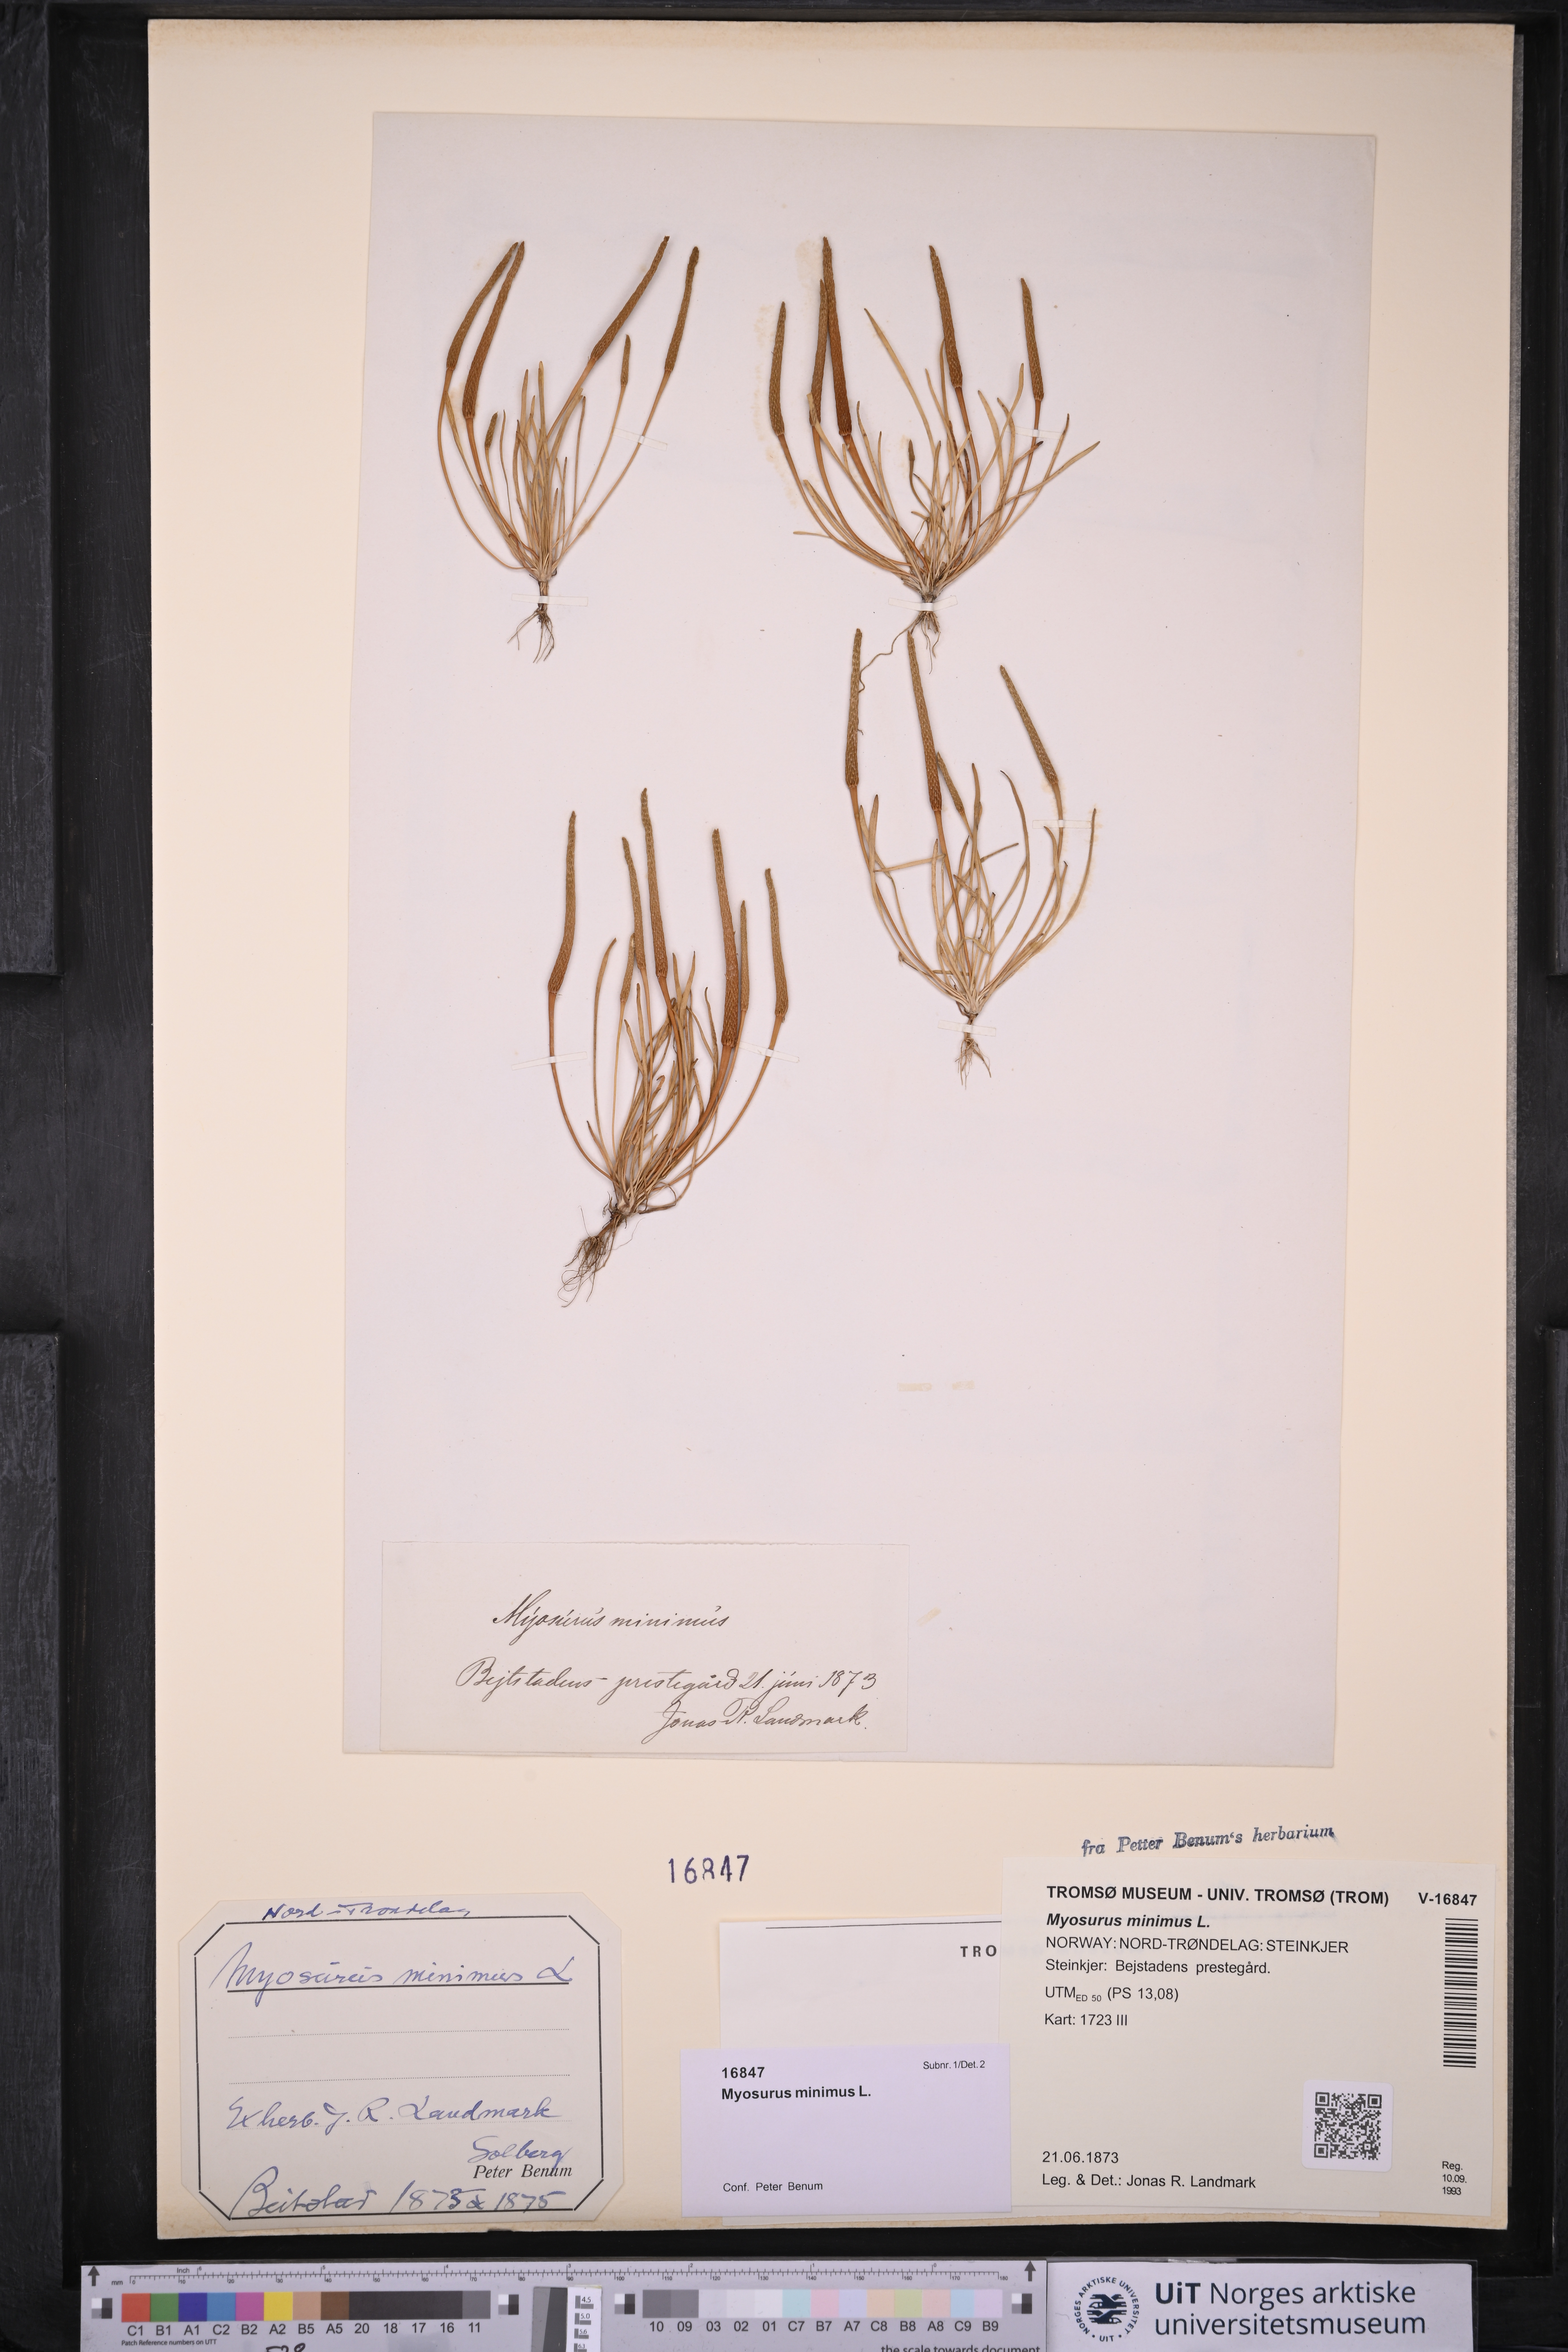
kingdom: Plantae
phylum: Tracheophyta
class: Magnoliopsida
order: Ranunculales
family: Ranunculaceae
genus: Myosurus
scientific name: Myosurus minimus
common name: Mousetail
